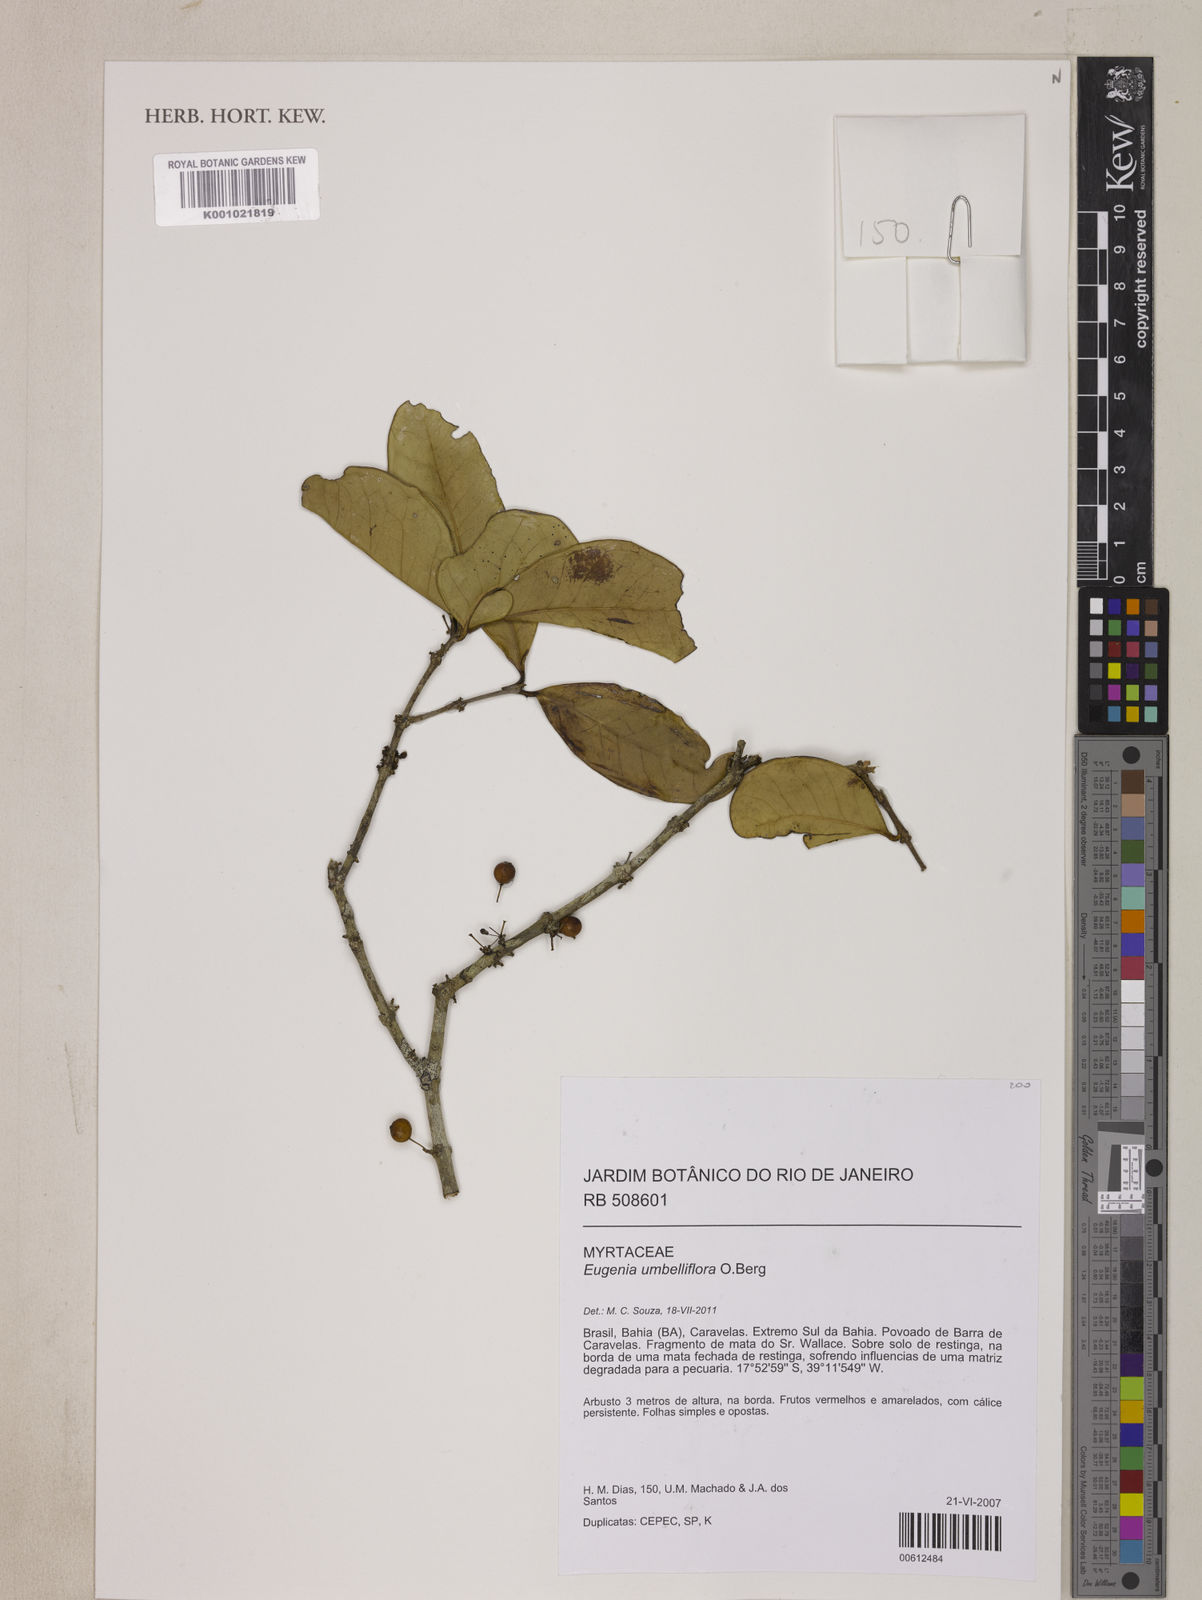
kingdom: Plantae
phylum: Tracheophyta
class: Magnoliopsida
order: Myrtales
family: Myrtaceae
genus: Eugenia
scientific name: Eugenia astringens
